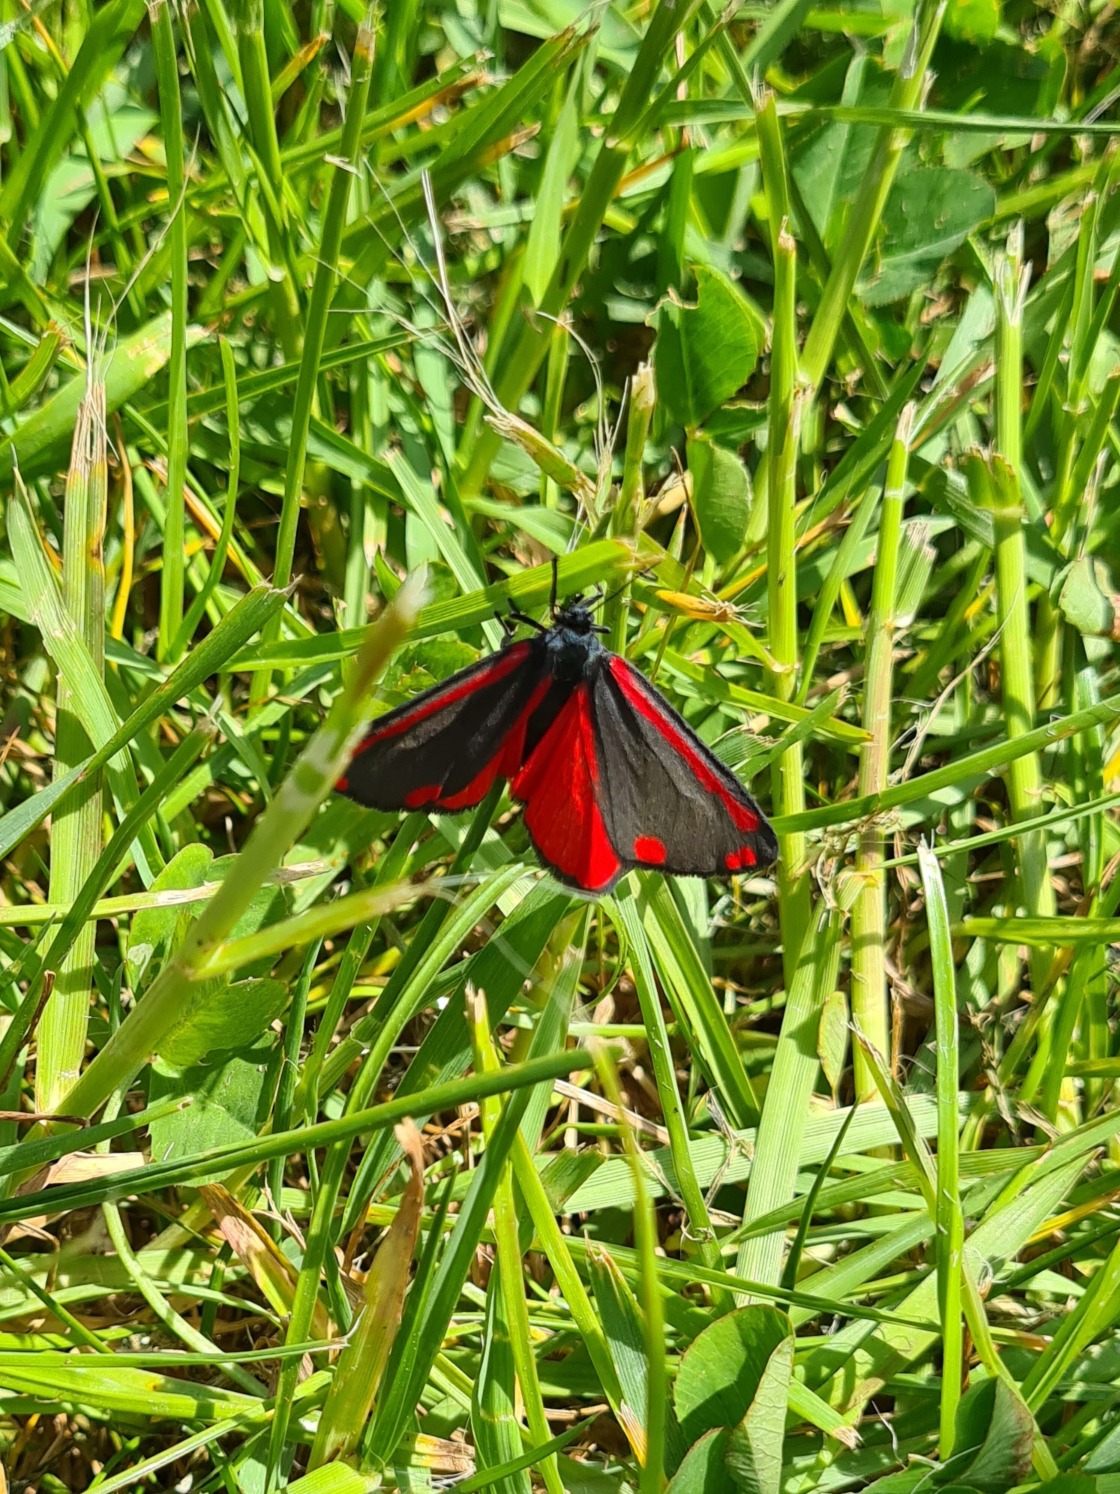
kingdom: Animalia
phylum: Arthropoda
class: Insecta
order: Lepidoptera
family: Erebidae
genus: Tyria
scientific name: Tyria jacobaeae
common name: Blodplet
